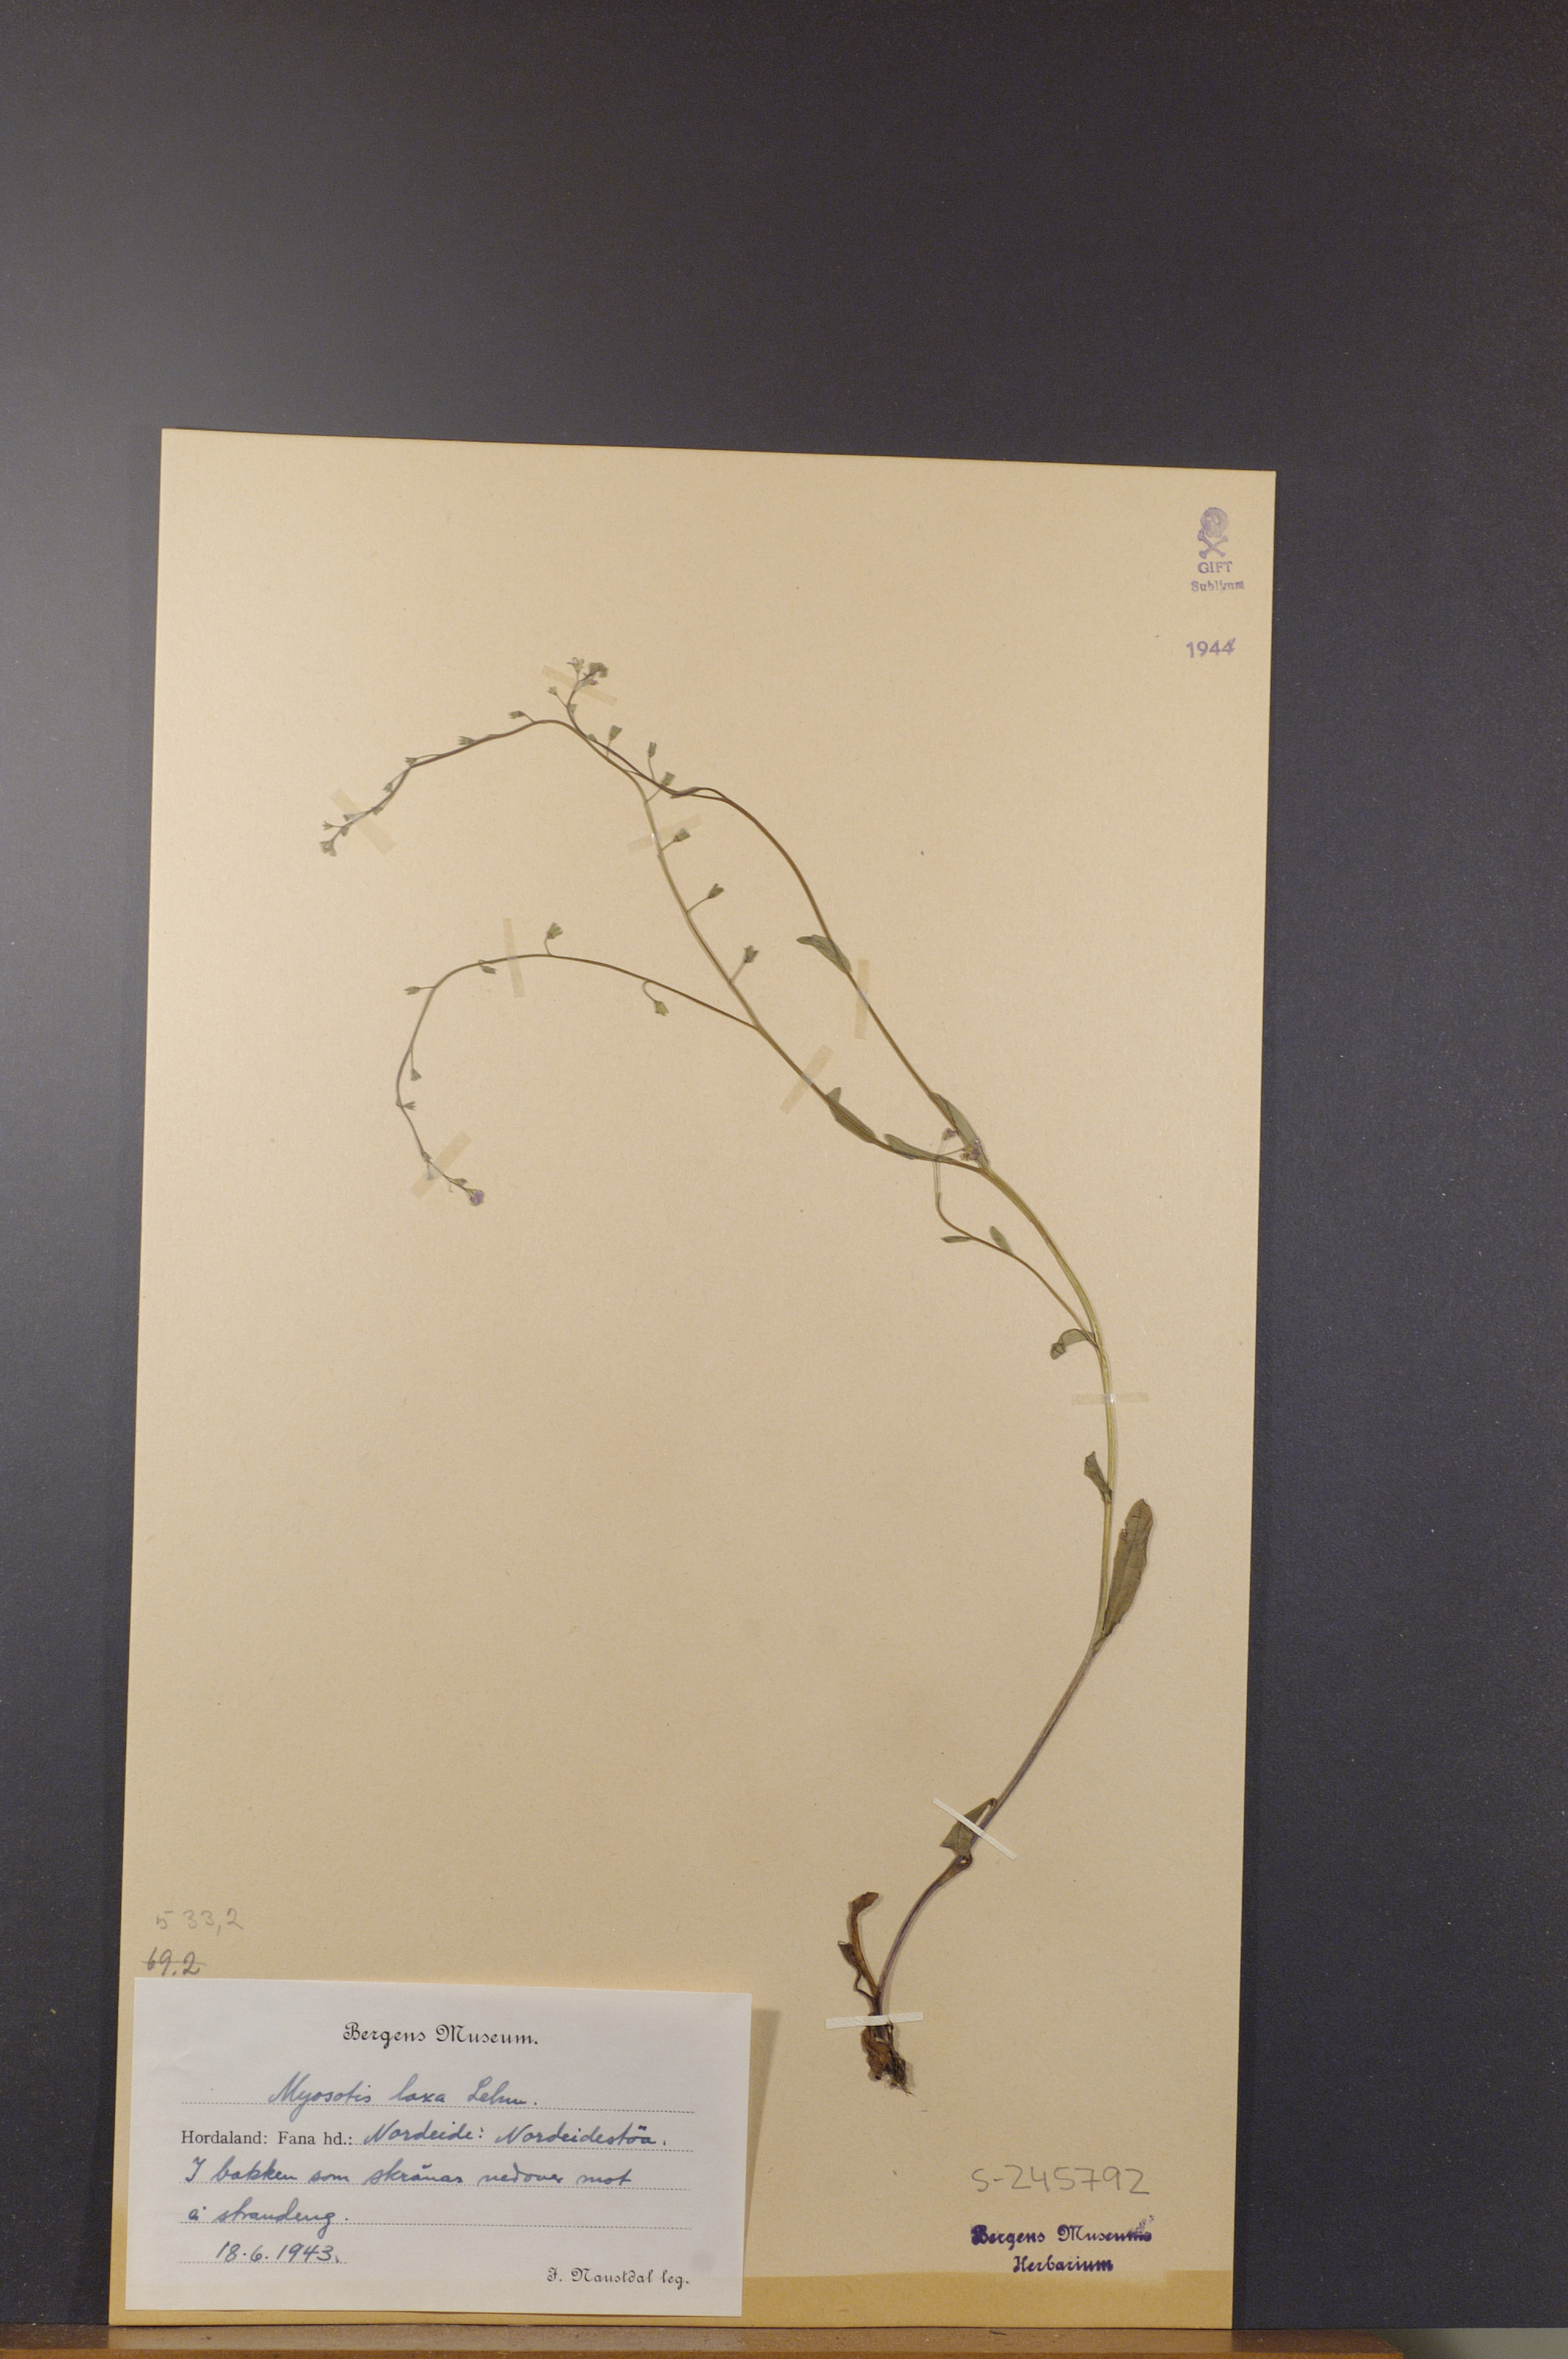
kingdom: Plantae
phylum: Tracheophyta
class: Magnoliopsida
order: Boraginales
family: Boraginaceae
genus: Myosotis
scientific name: Myosotis laxa
